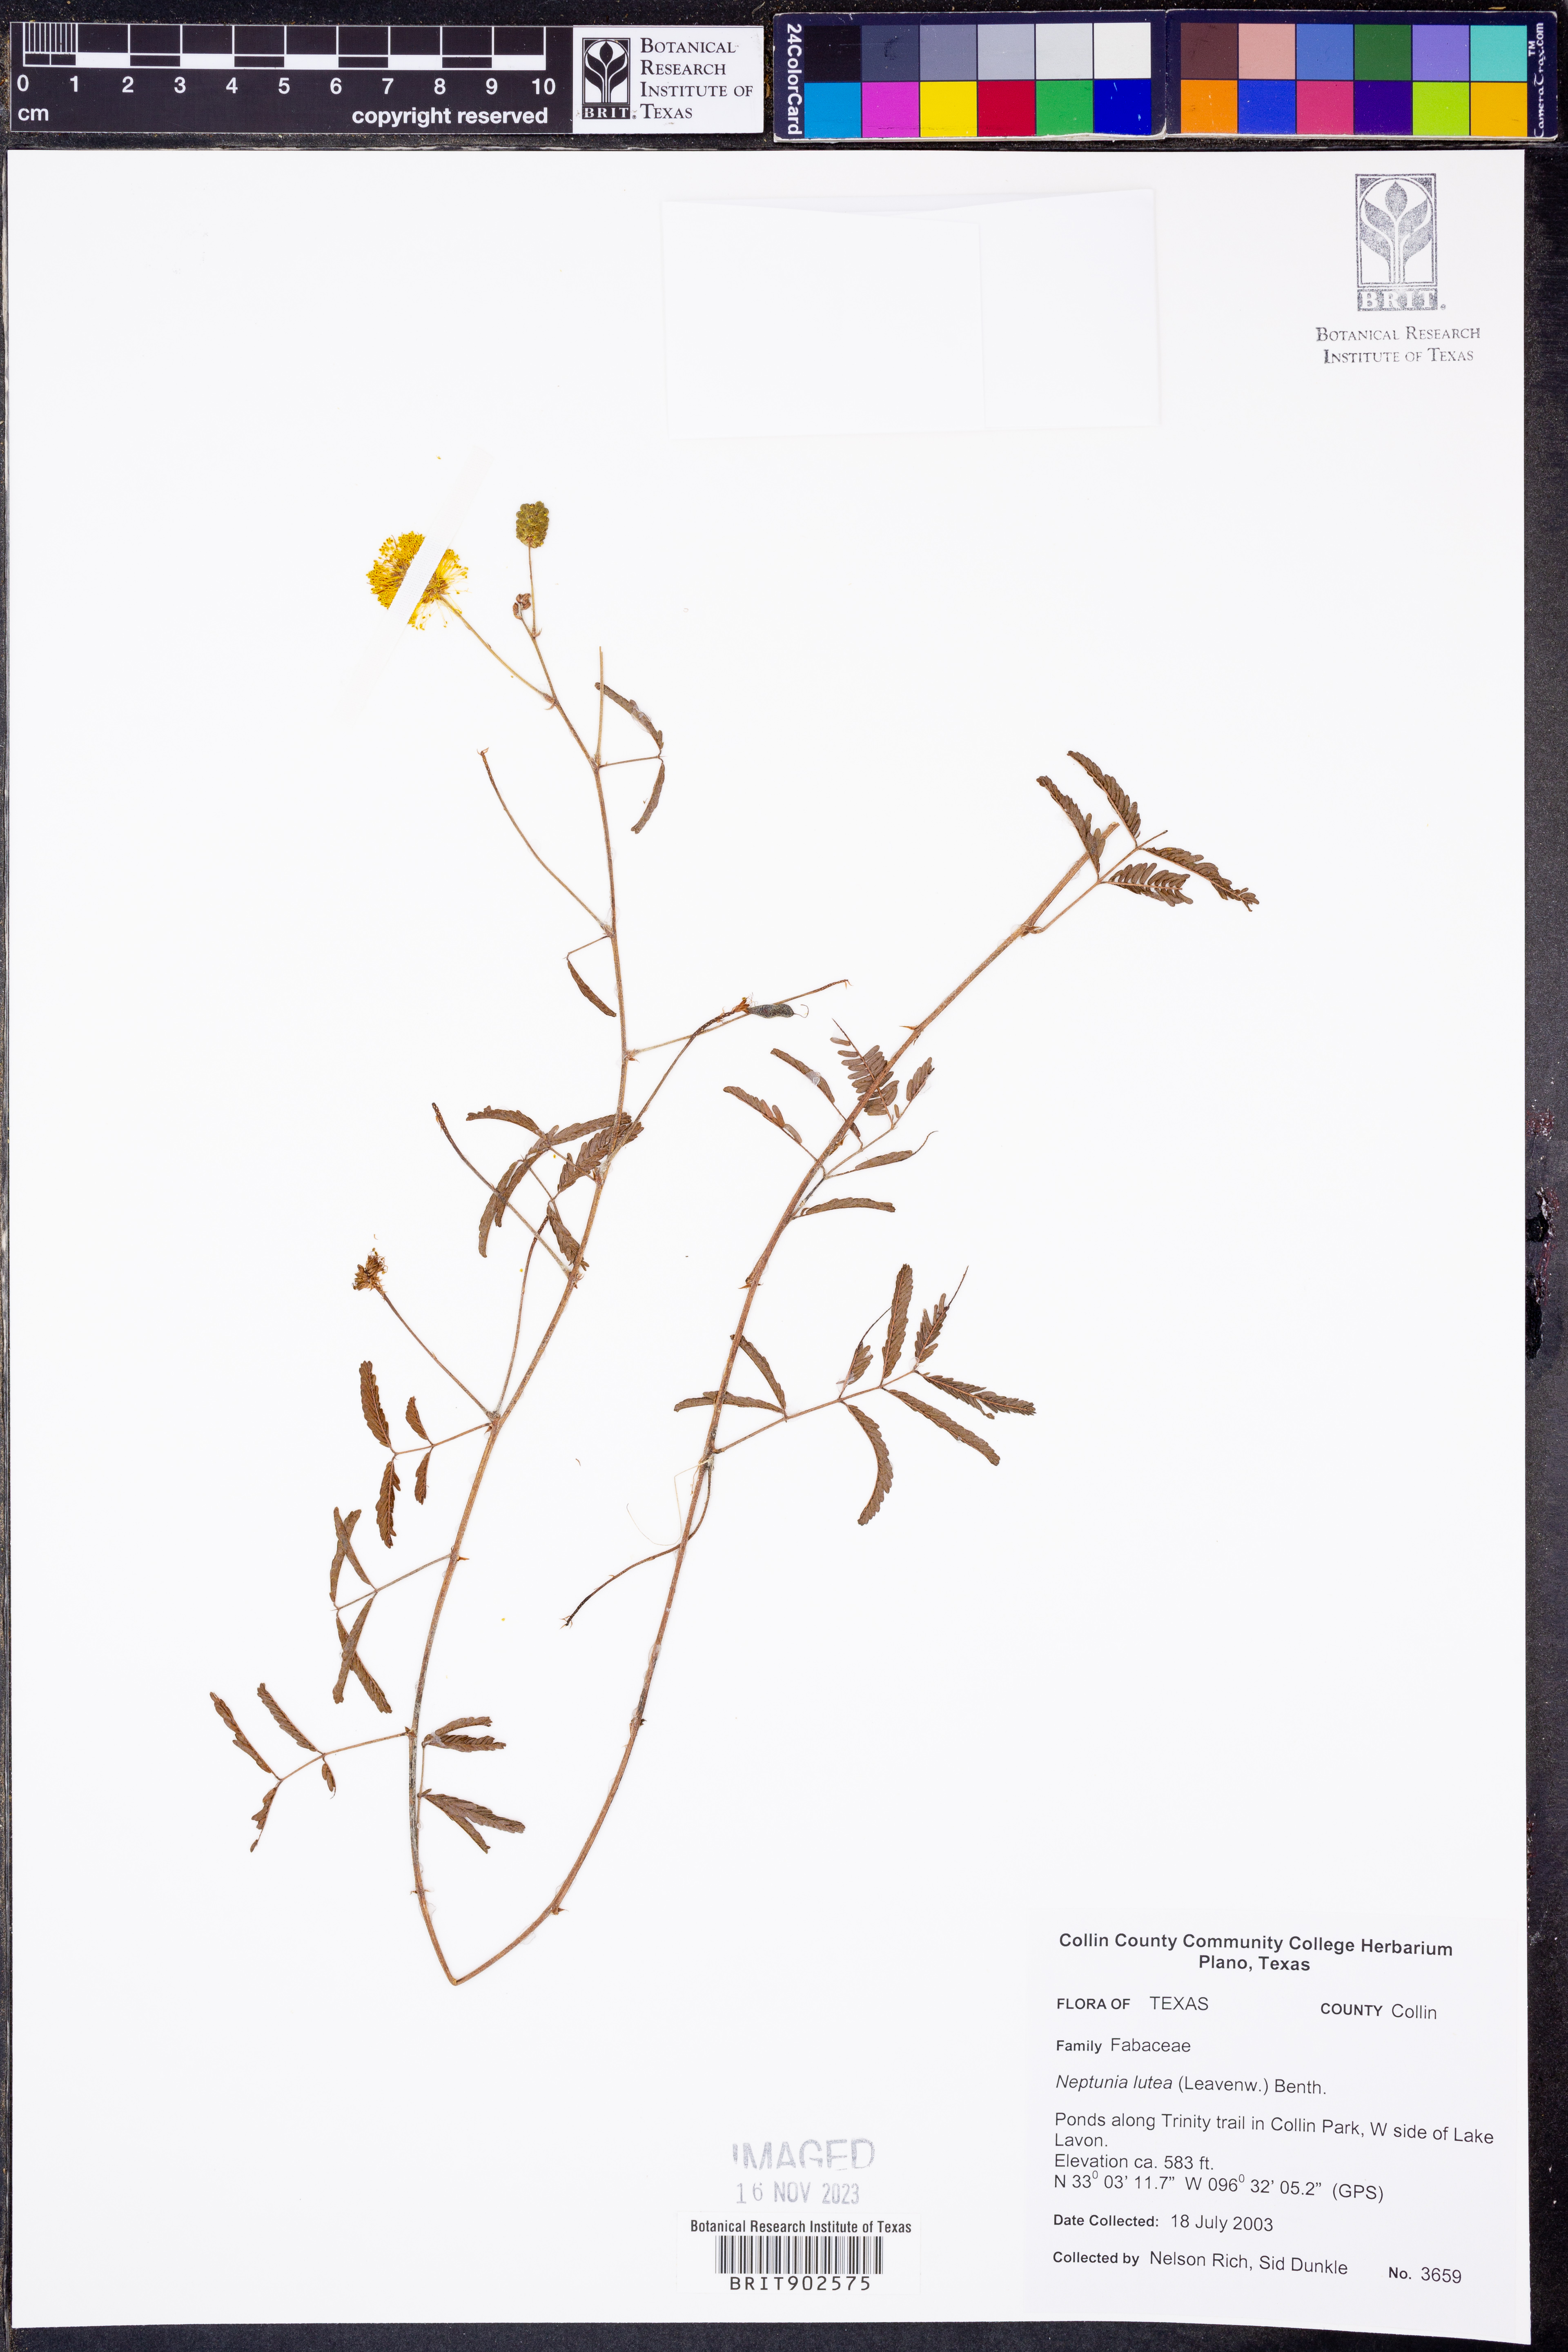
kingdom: Plantae
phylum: Tracheophyta
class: Magnoliopsida
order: Fabales
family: Fabaceae
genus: Neptunia
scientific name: Neptunia lutea
